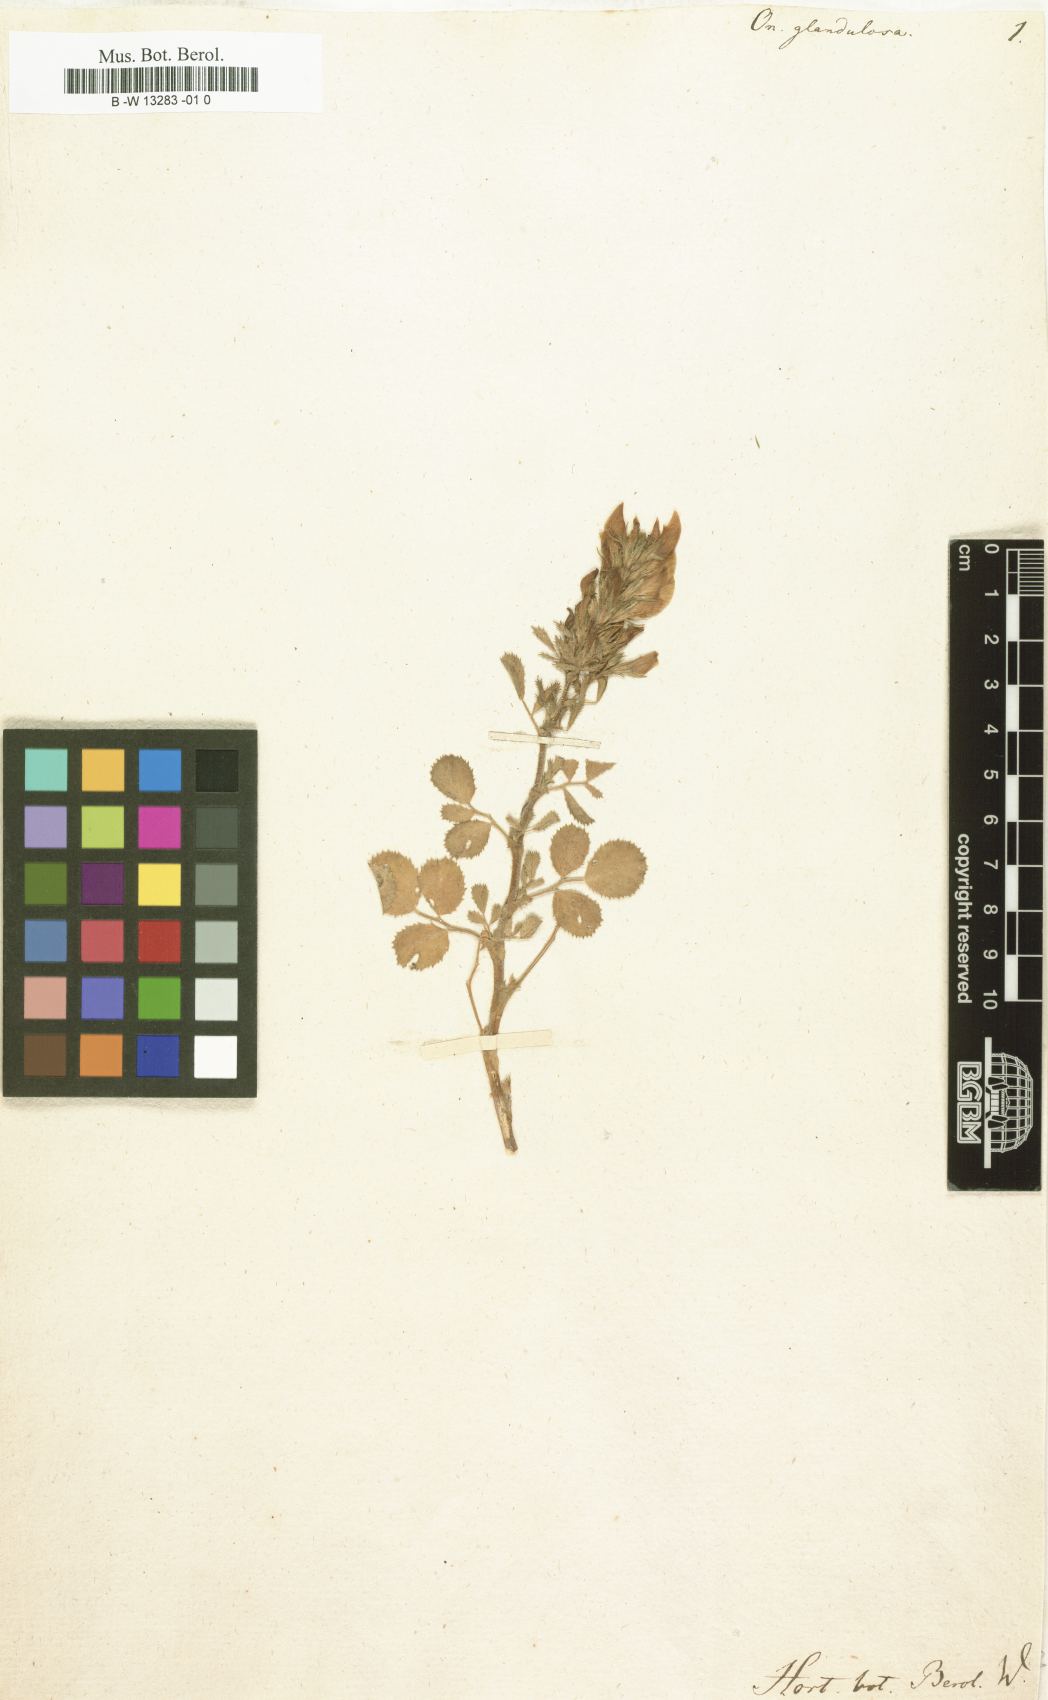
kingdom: Plantae
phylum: Tracheophyta
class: Magnoliopsida
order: Fabales
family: Fabaceae
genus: Ononis
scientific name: Ononis
